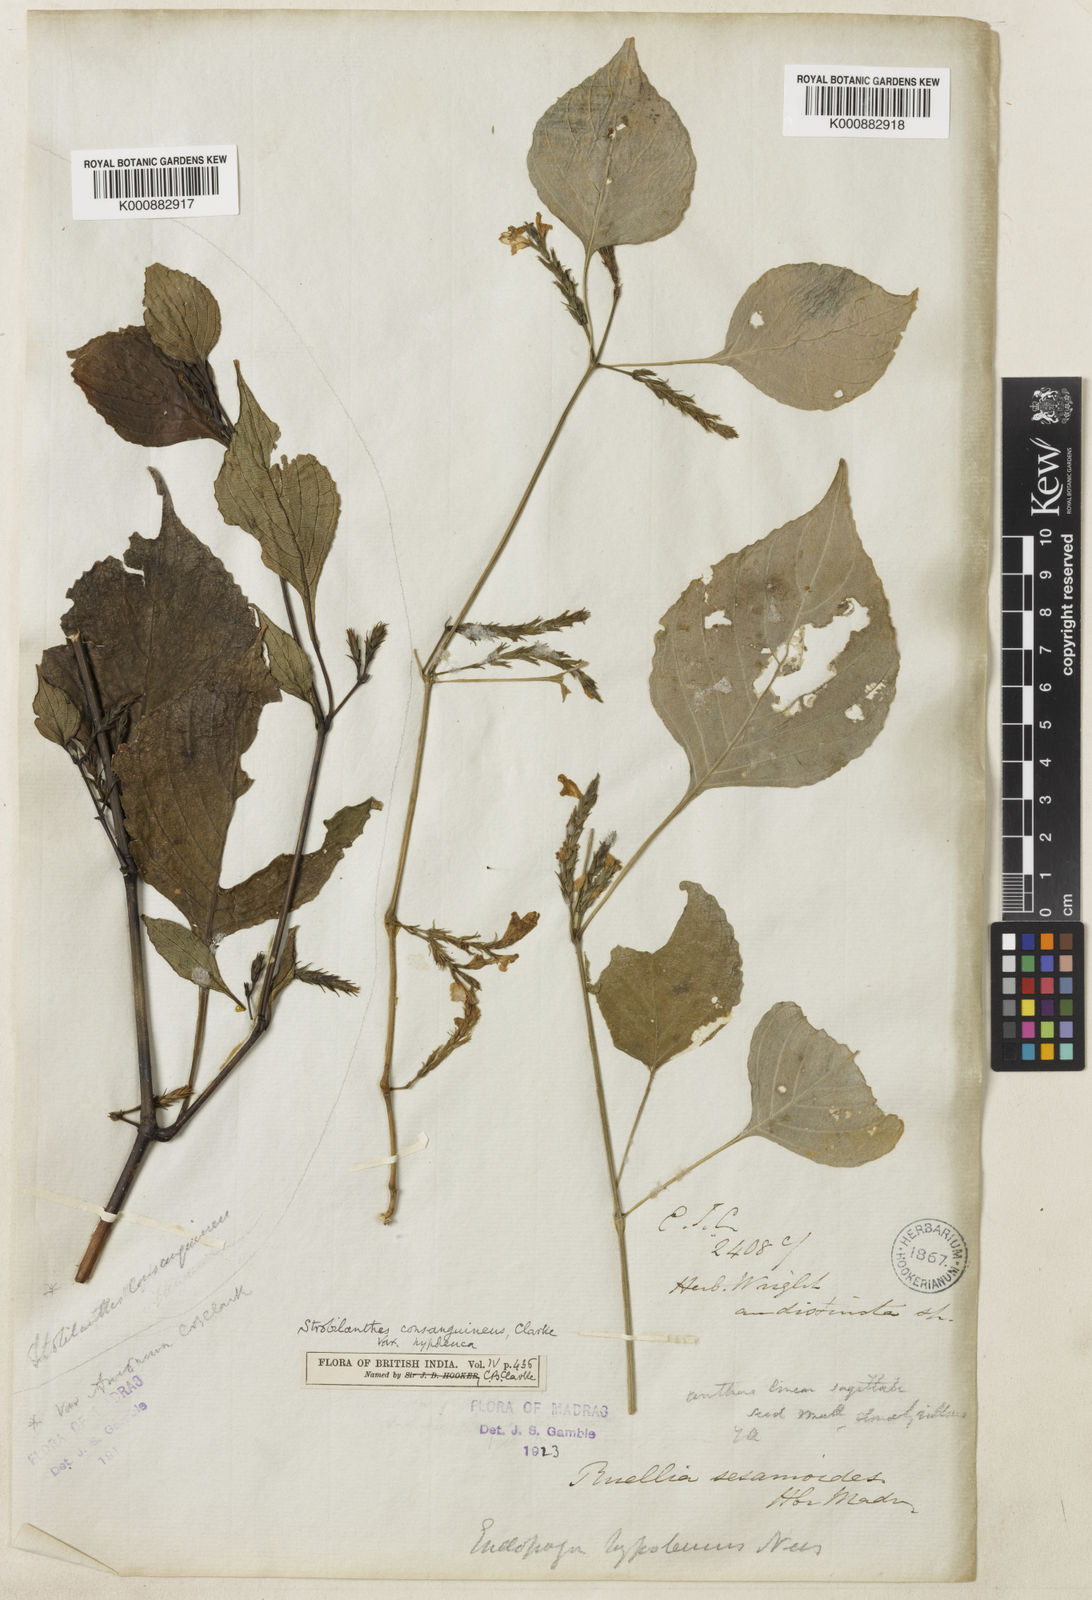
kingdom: Plantae
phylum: Tracheophyta
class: Magnoliopsida
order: Lamiales
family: Acanthaceae
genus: Strobilanthes
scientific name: Strobilanthes diandra
